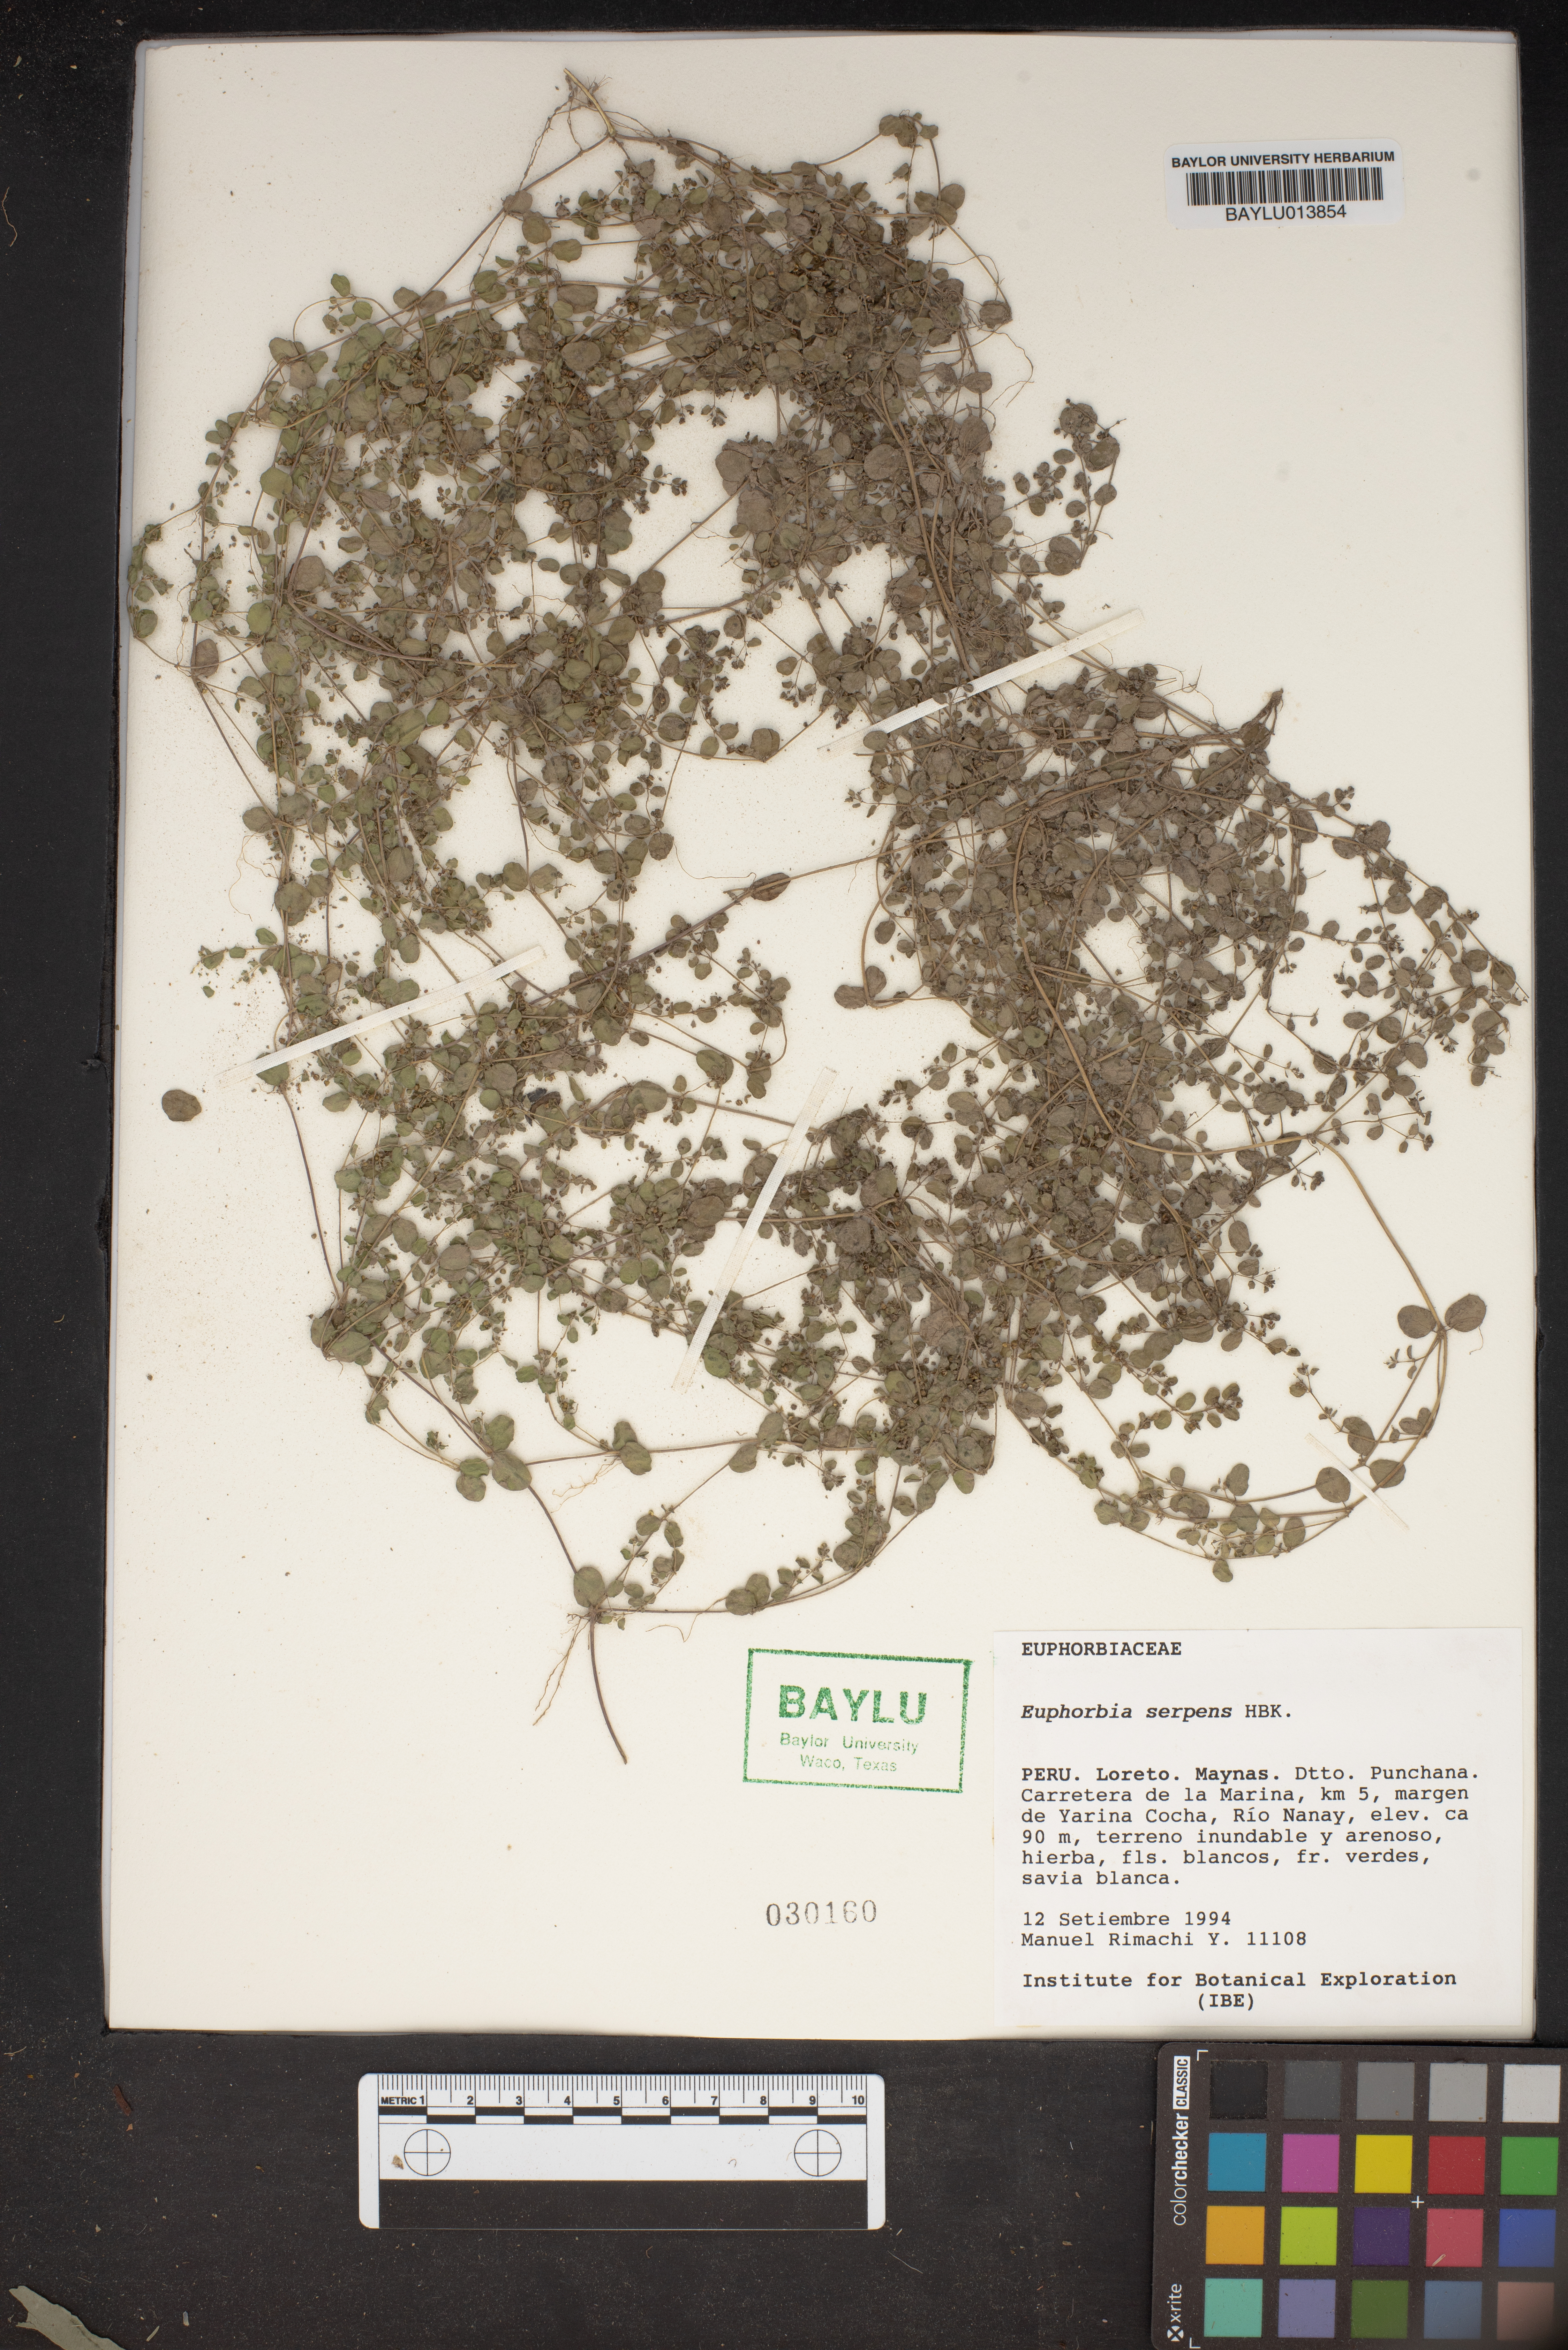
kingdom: Plantae
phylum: Tracheophyta
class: Magnoliopsida
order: Malpighiales
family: Euphorbiaceae
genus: Euphorbia
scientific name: Euphorbia serpens
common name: Matted sandmat
